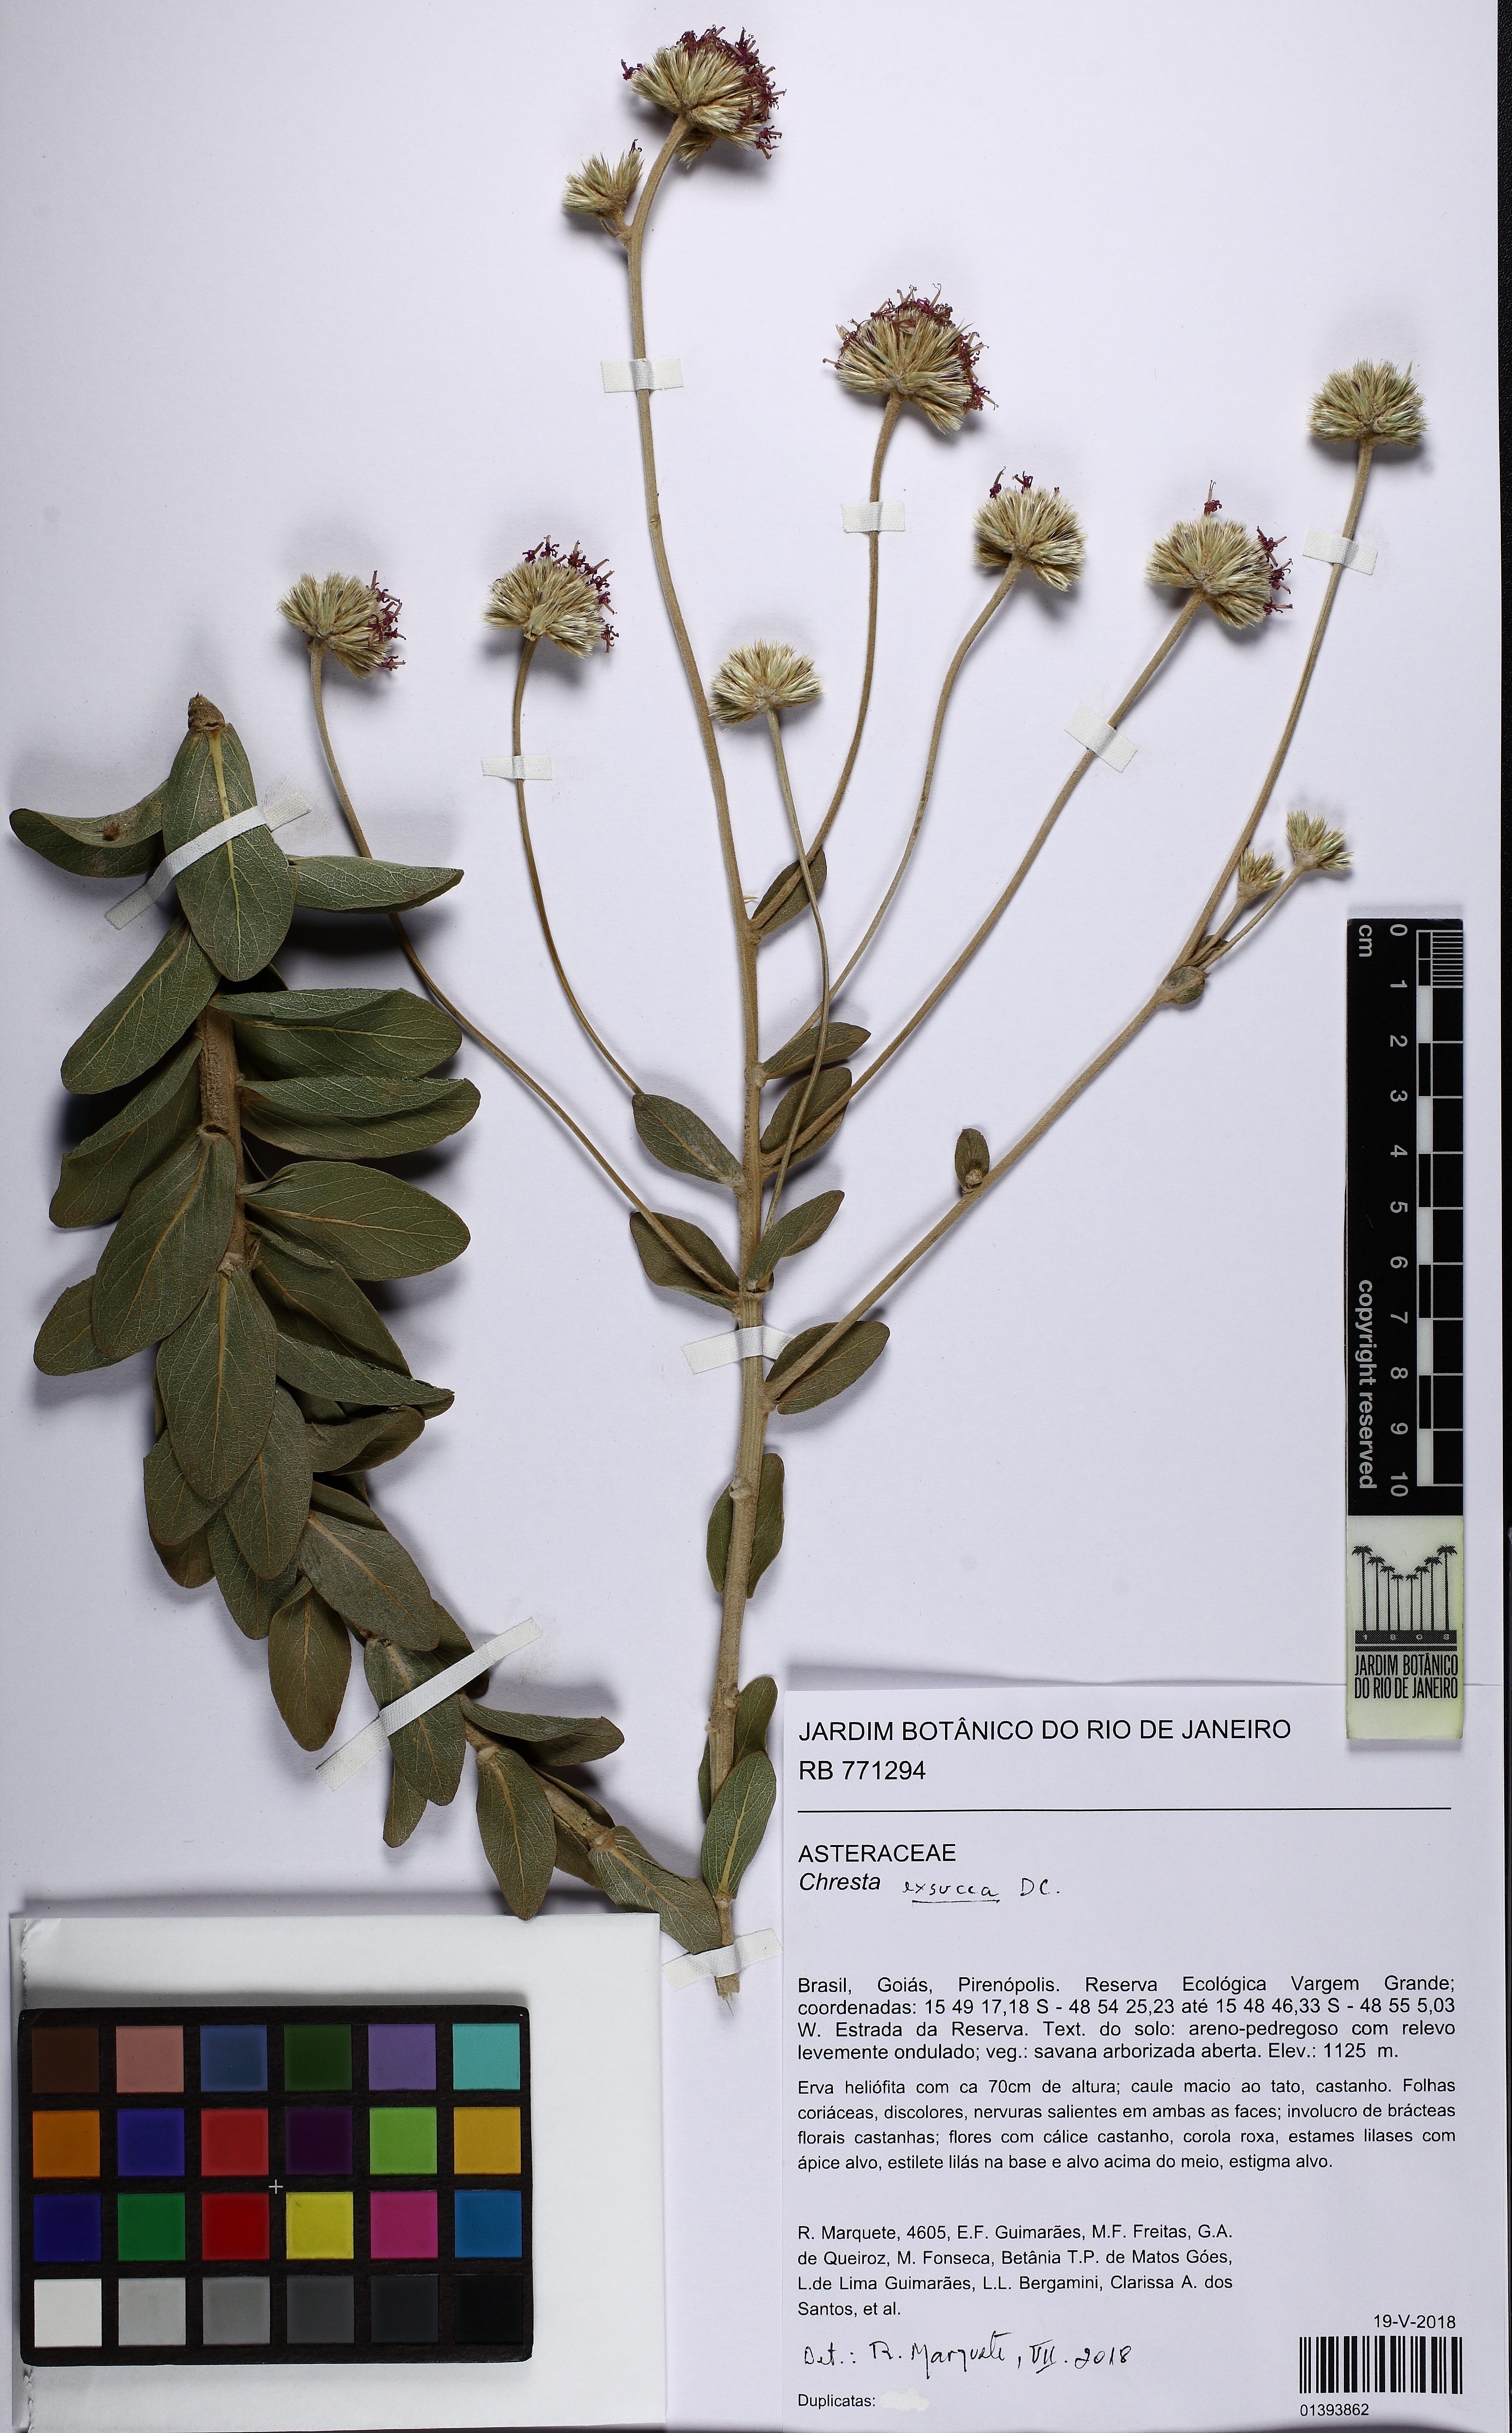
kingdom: Plantae
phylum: Tracheophyta
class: Magnoliopsida
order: Asterales
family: Asteraceae
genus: Chresta
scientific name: Chresta exsucca
